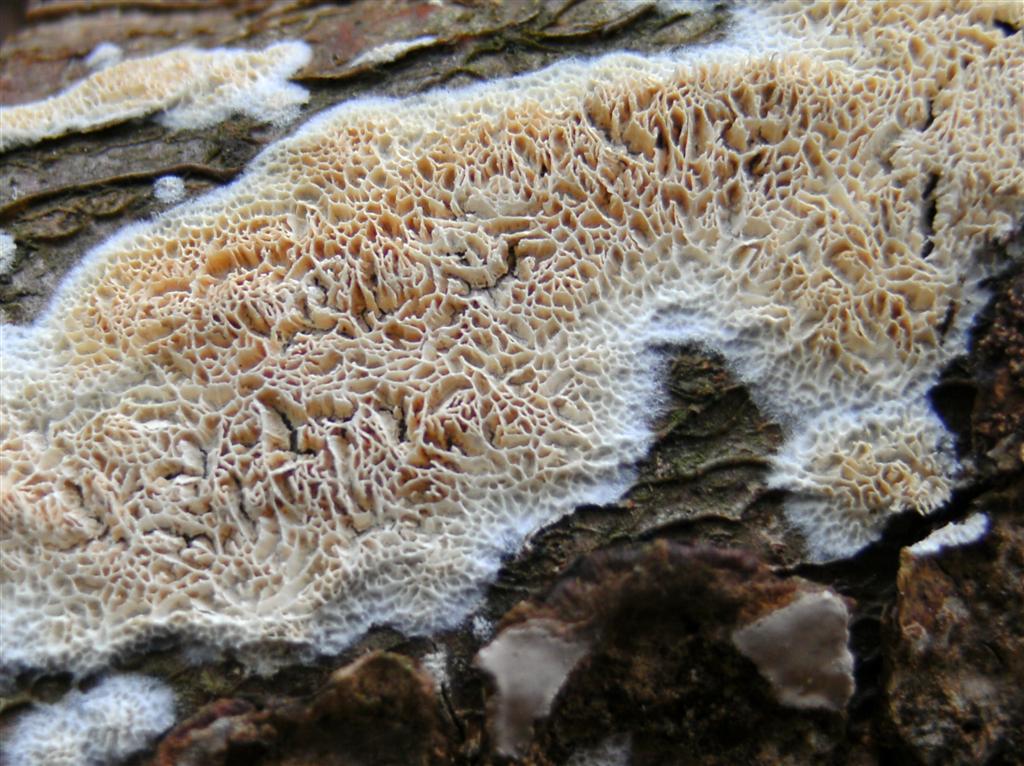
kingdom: Fungi
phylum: Basidiomycota
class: Agaricomycetes
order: Hymenochaetales
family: Schizoporaceae
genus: Xylodon
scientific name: Xylodon subtropicus
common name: labyrint-tandsvamp
